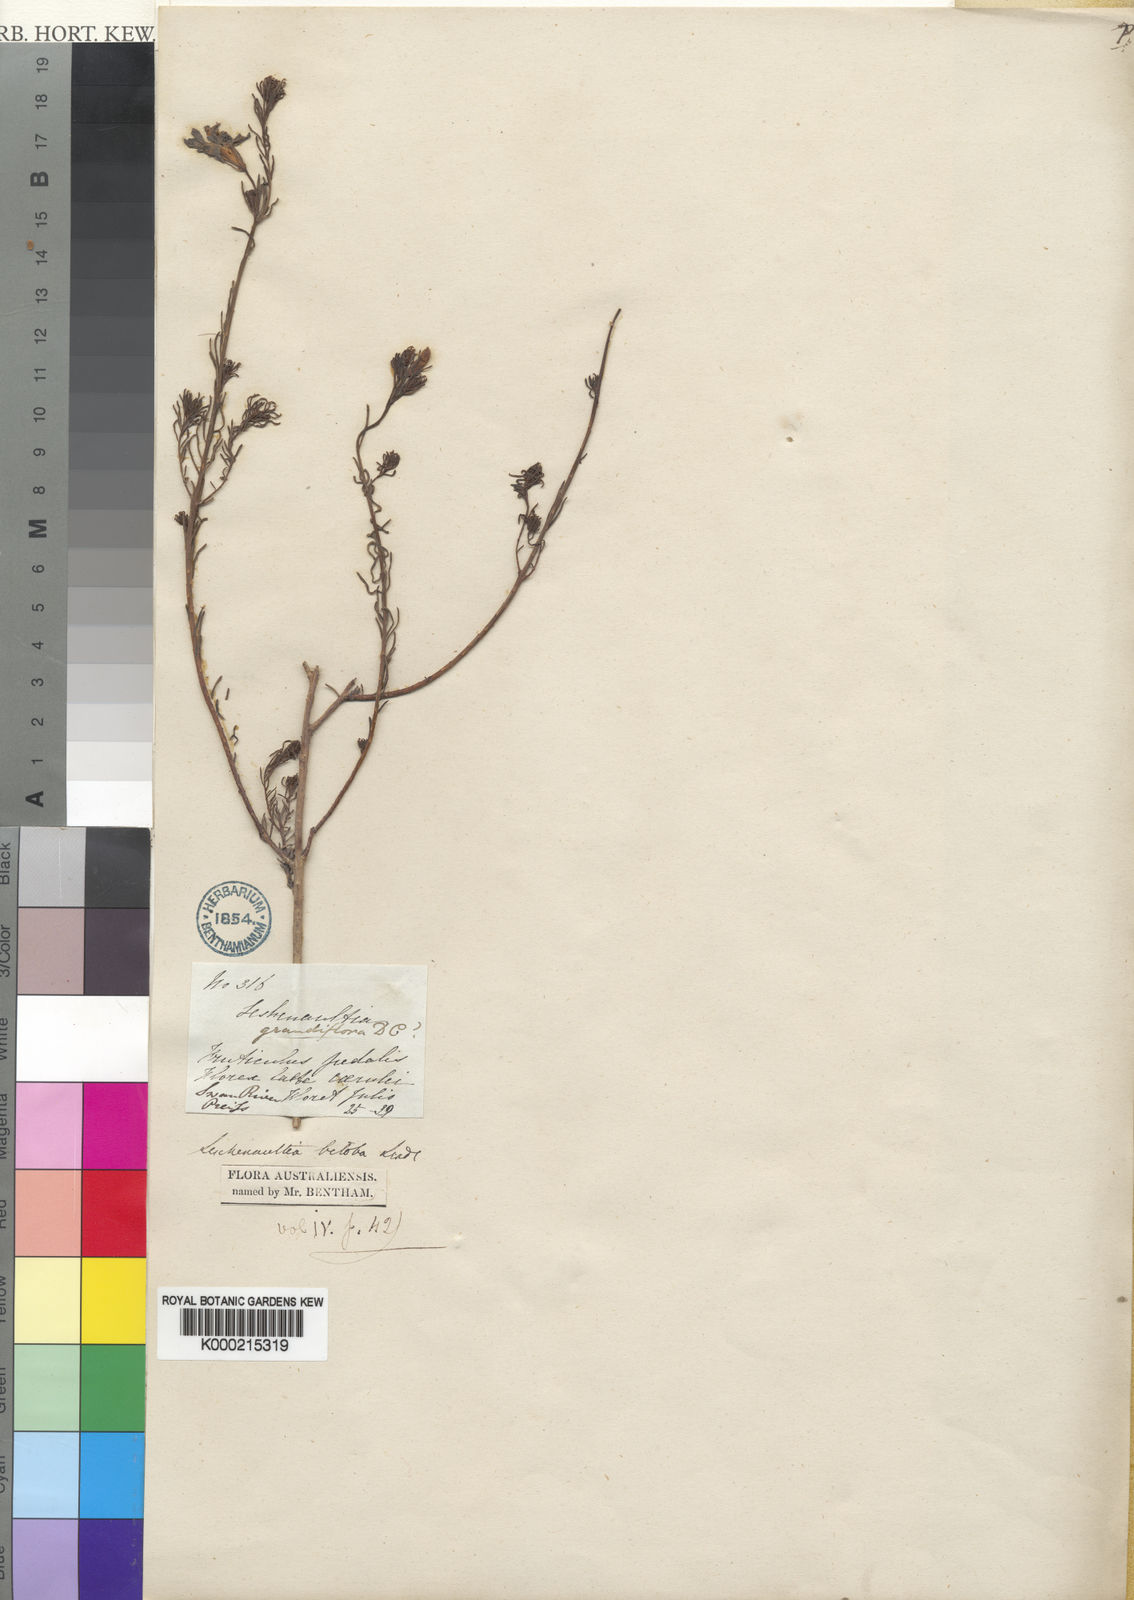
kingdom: Plantae
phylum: Tracheophyta
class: Magnoliopsida
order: Asterales
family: Goodeniaceae
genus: Leschenaultia
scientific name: Leschenaultia biloba
